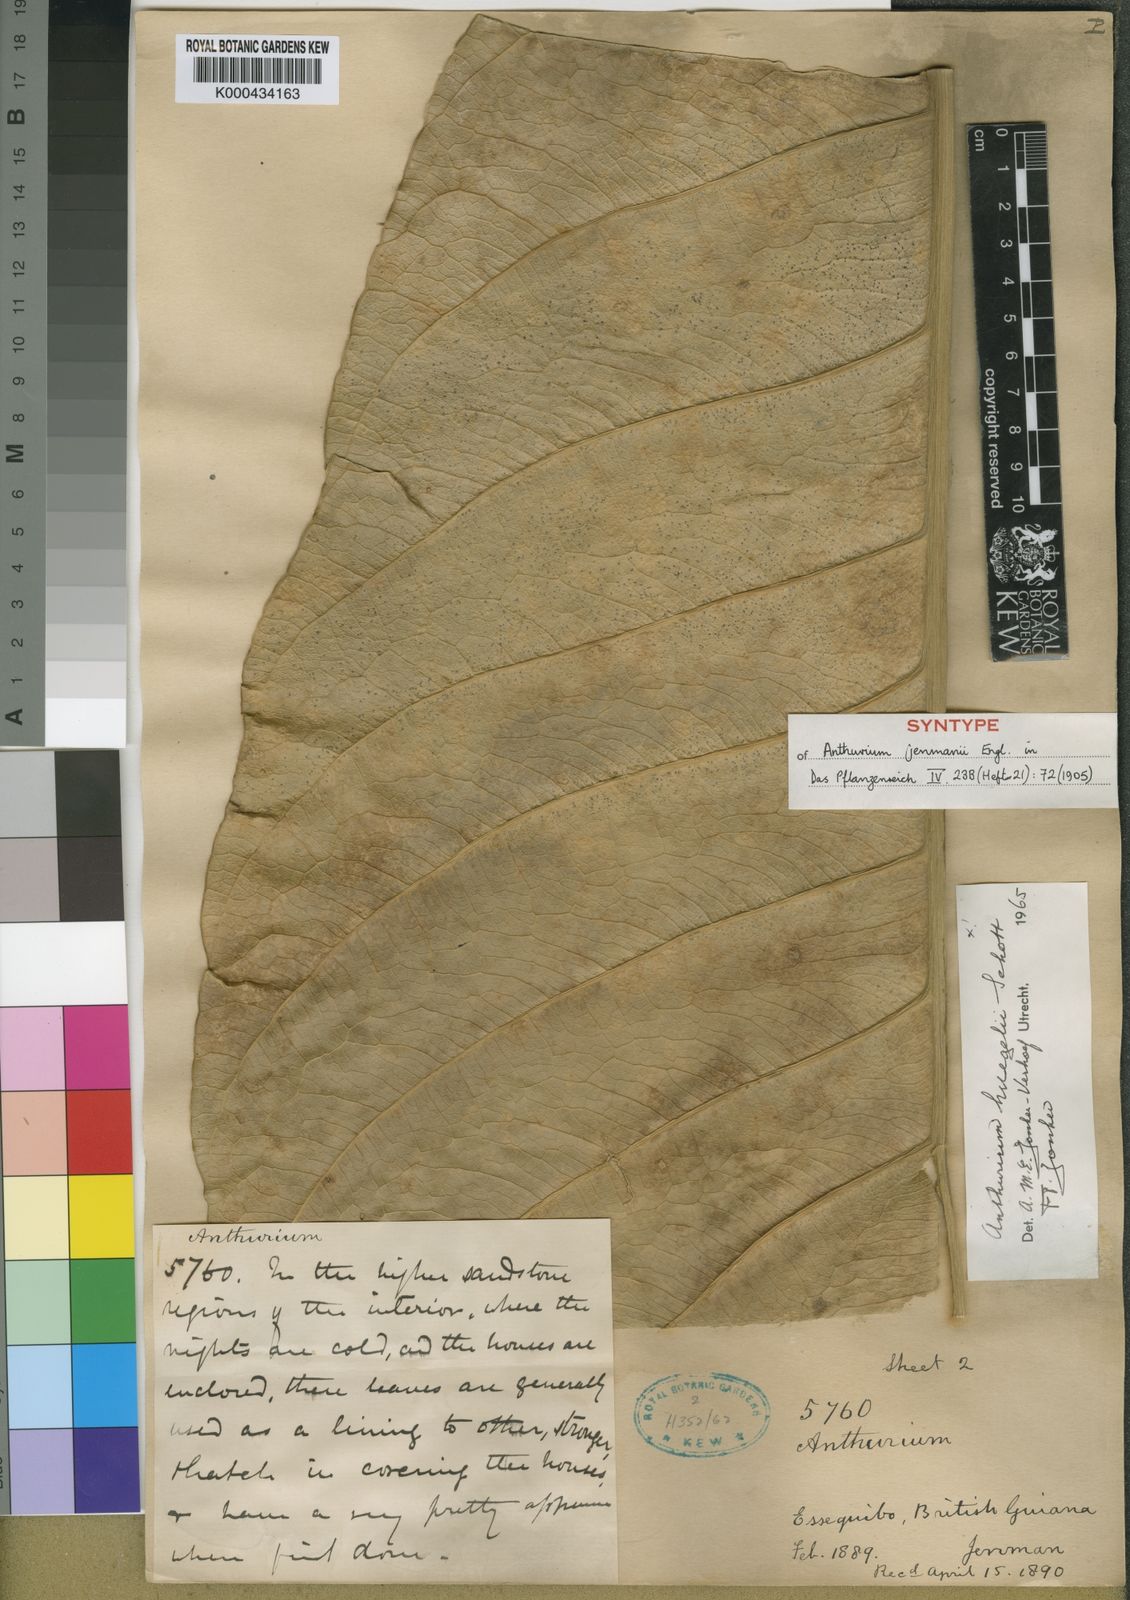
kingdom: Plantae
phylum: Tracheophyta
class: Liliopsida
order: Alismatales
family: Araceae
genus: Anthurium
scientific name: Anthurium jenmanii
